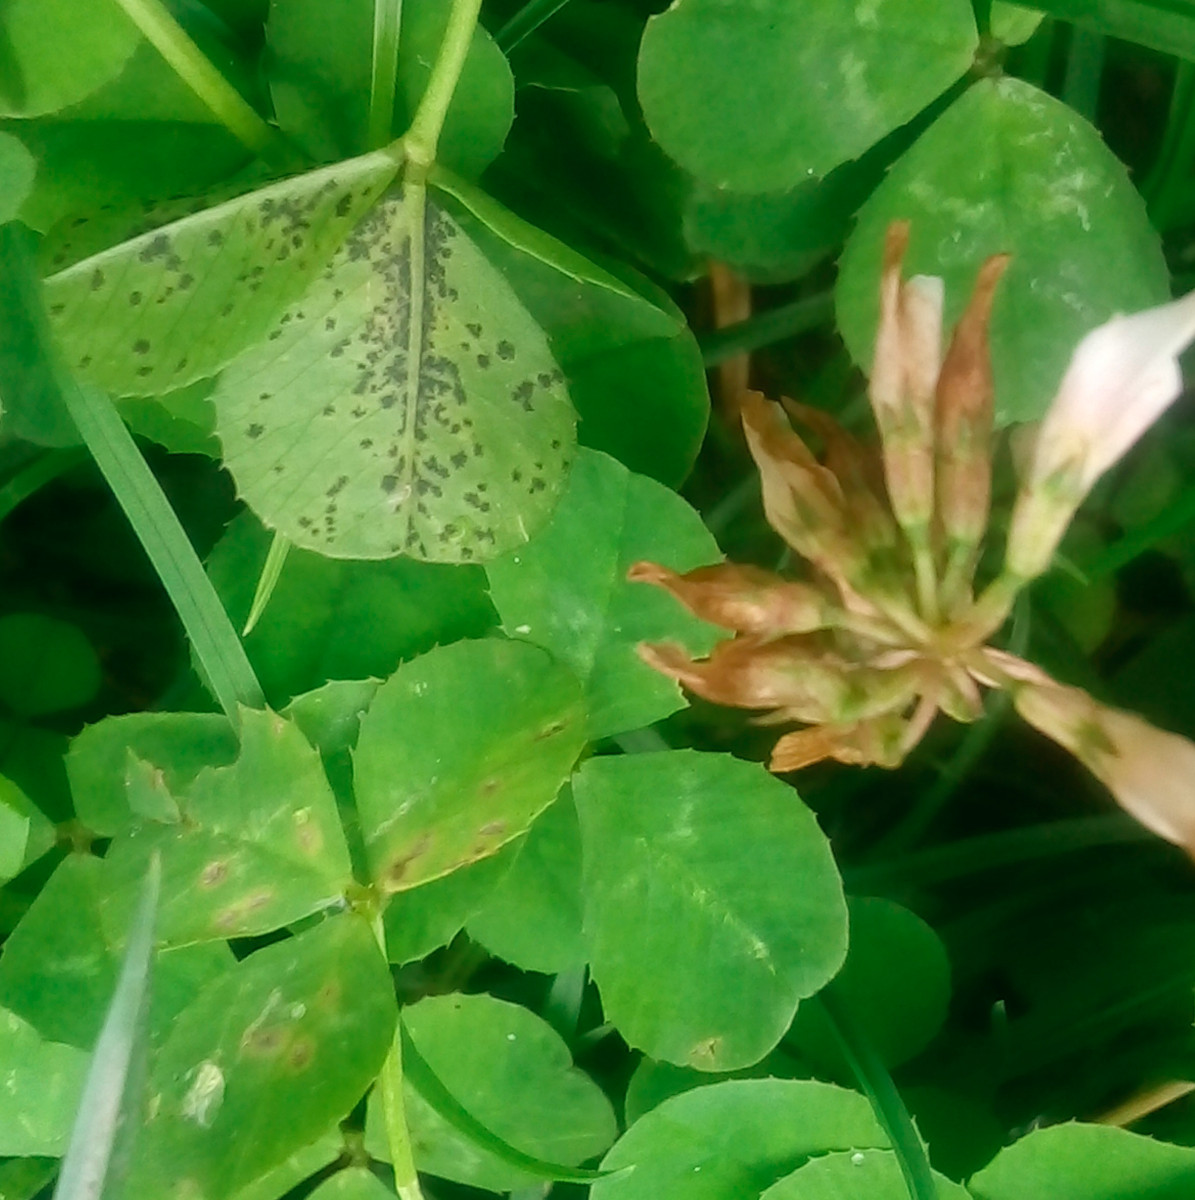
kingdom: Fungi
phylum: Ascomycota
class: Dothideomycetes
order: Mycosphaerellales
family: Mycosphaerellaceae
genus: Polythrincium
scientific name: Polythrincium trifolii
